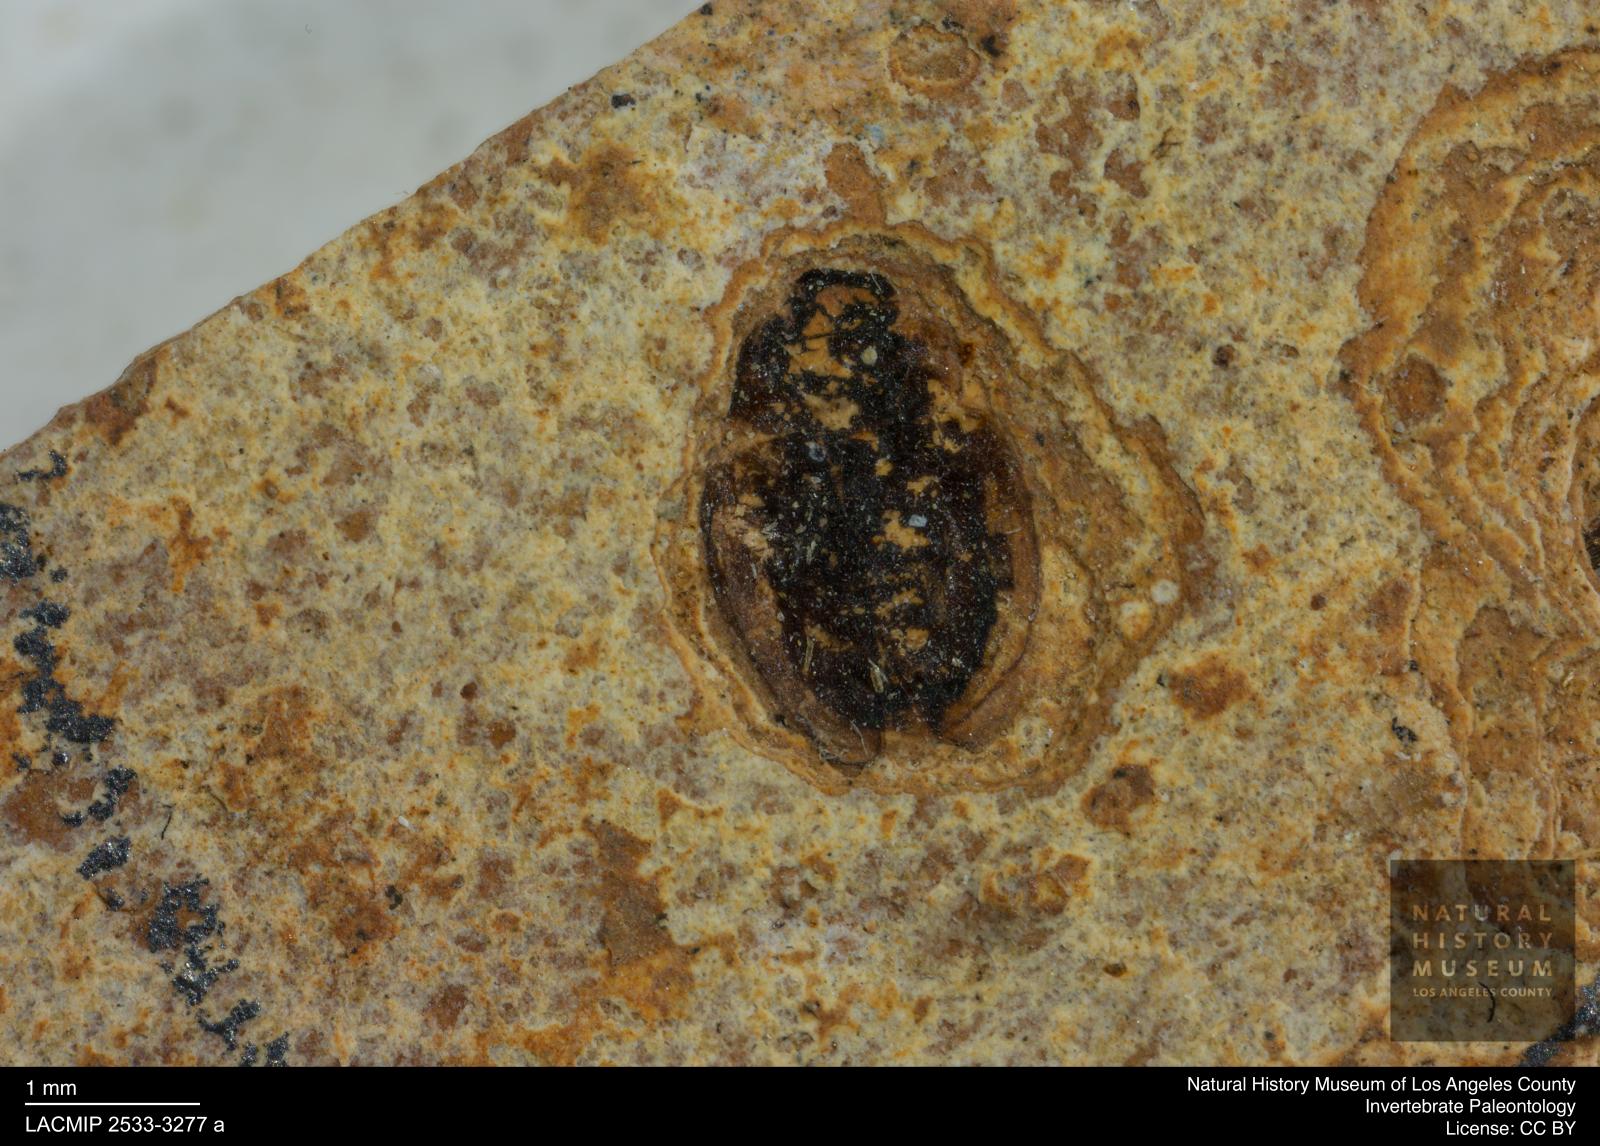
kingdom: Animalia
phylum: Arthropoda
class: Insecta
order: Coleoptera
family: Hydrophilidae
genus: Paracymus
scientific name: Paracymus excitatus
